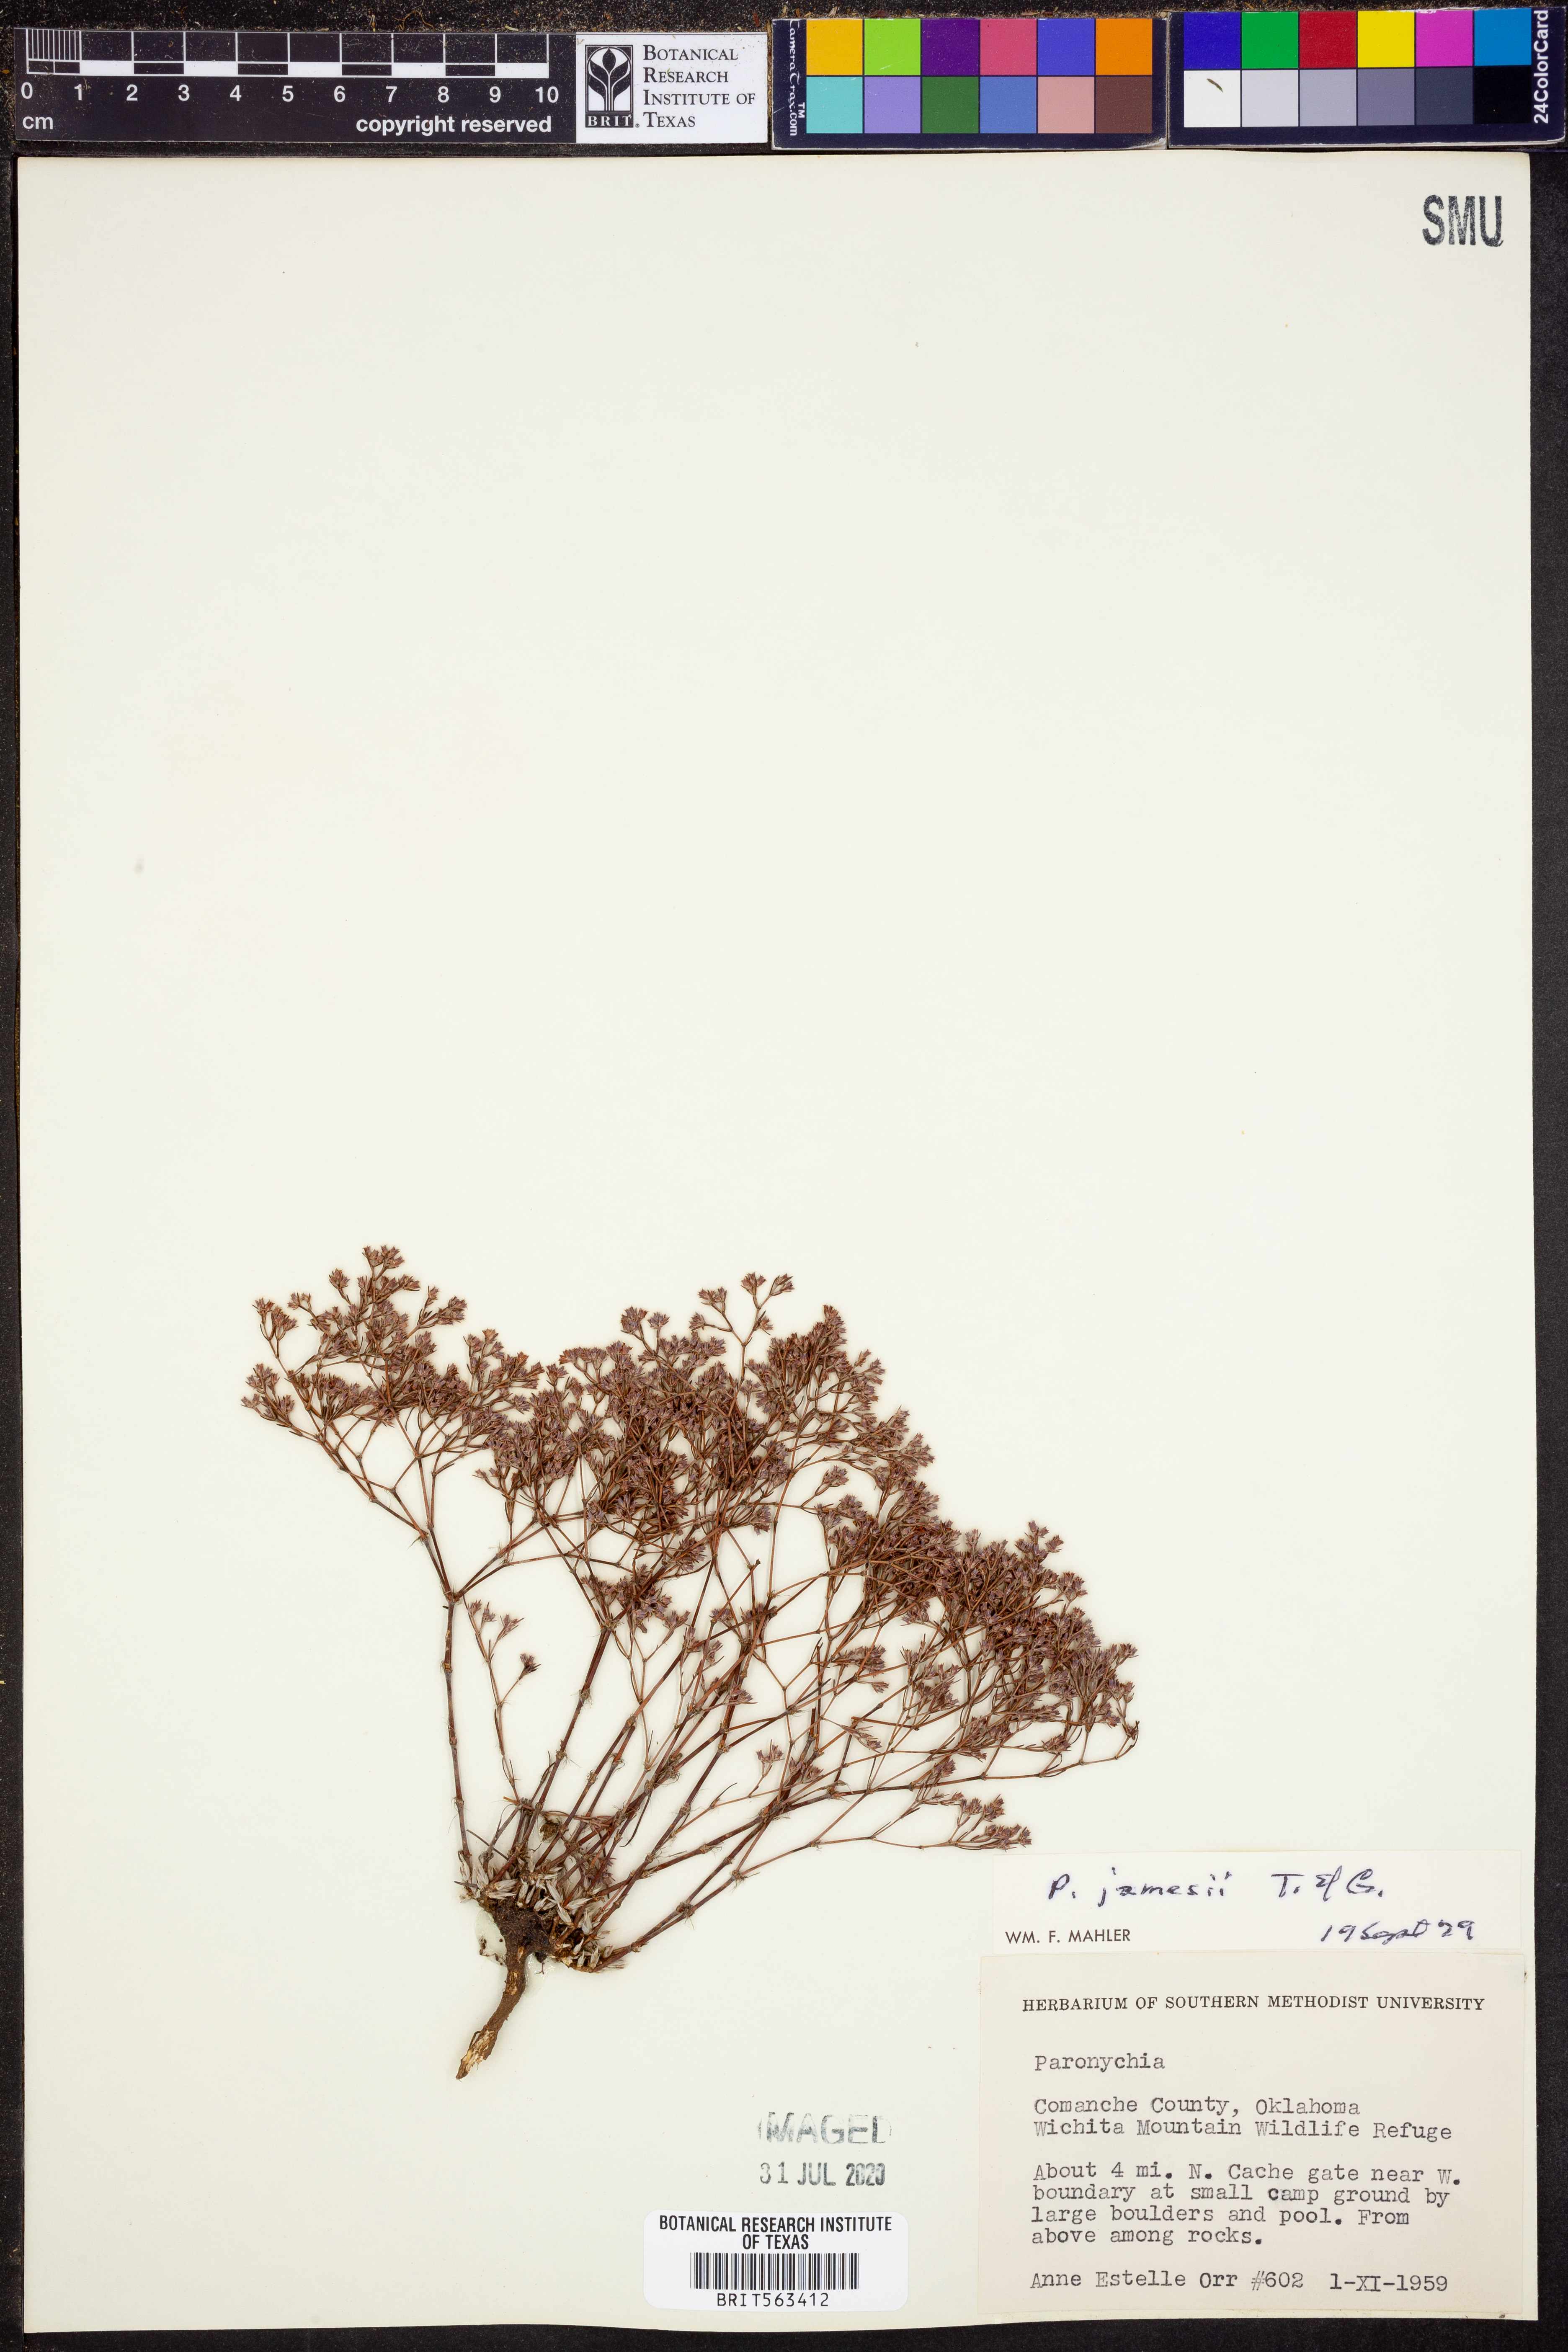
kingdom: Plantae
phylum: Tracheophyta
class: Magnoliopsida
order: Caryophyllales
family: Caryophyllaceae
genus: Paronychia
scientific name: Paronychia jamesii
